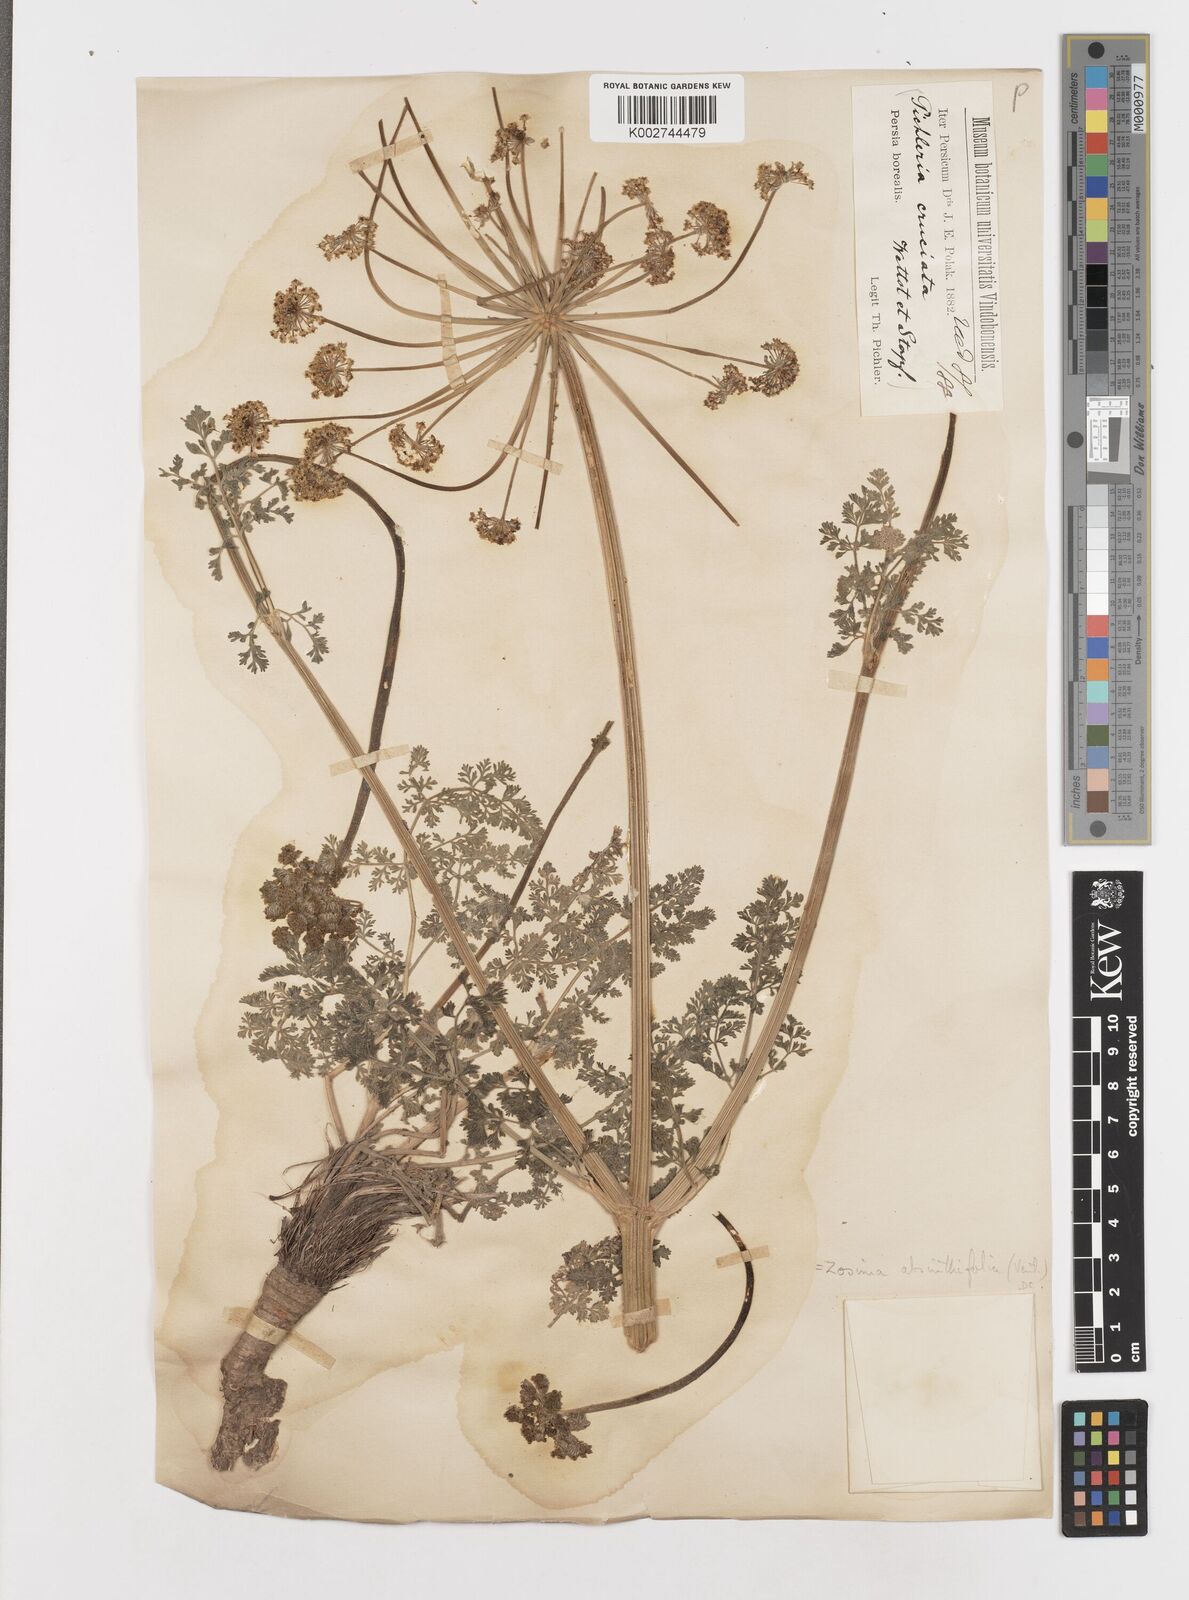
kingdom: Plantae
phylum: Tracheophyta
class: Magnoliopsida
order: Apiales
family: Apiaceae
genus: Zosima
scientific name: Zosima absinthiifolia
